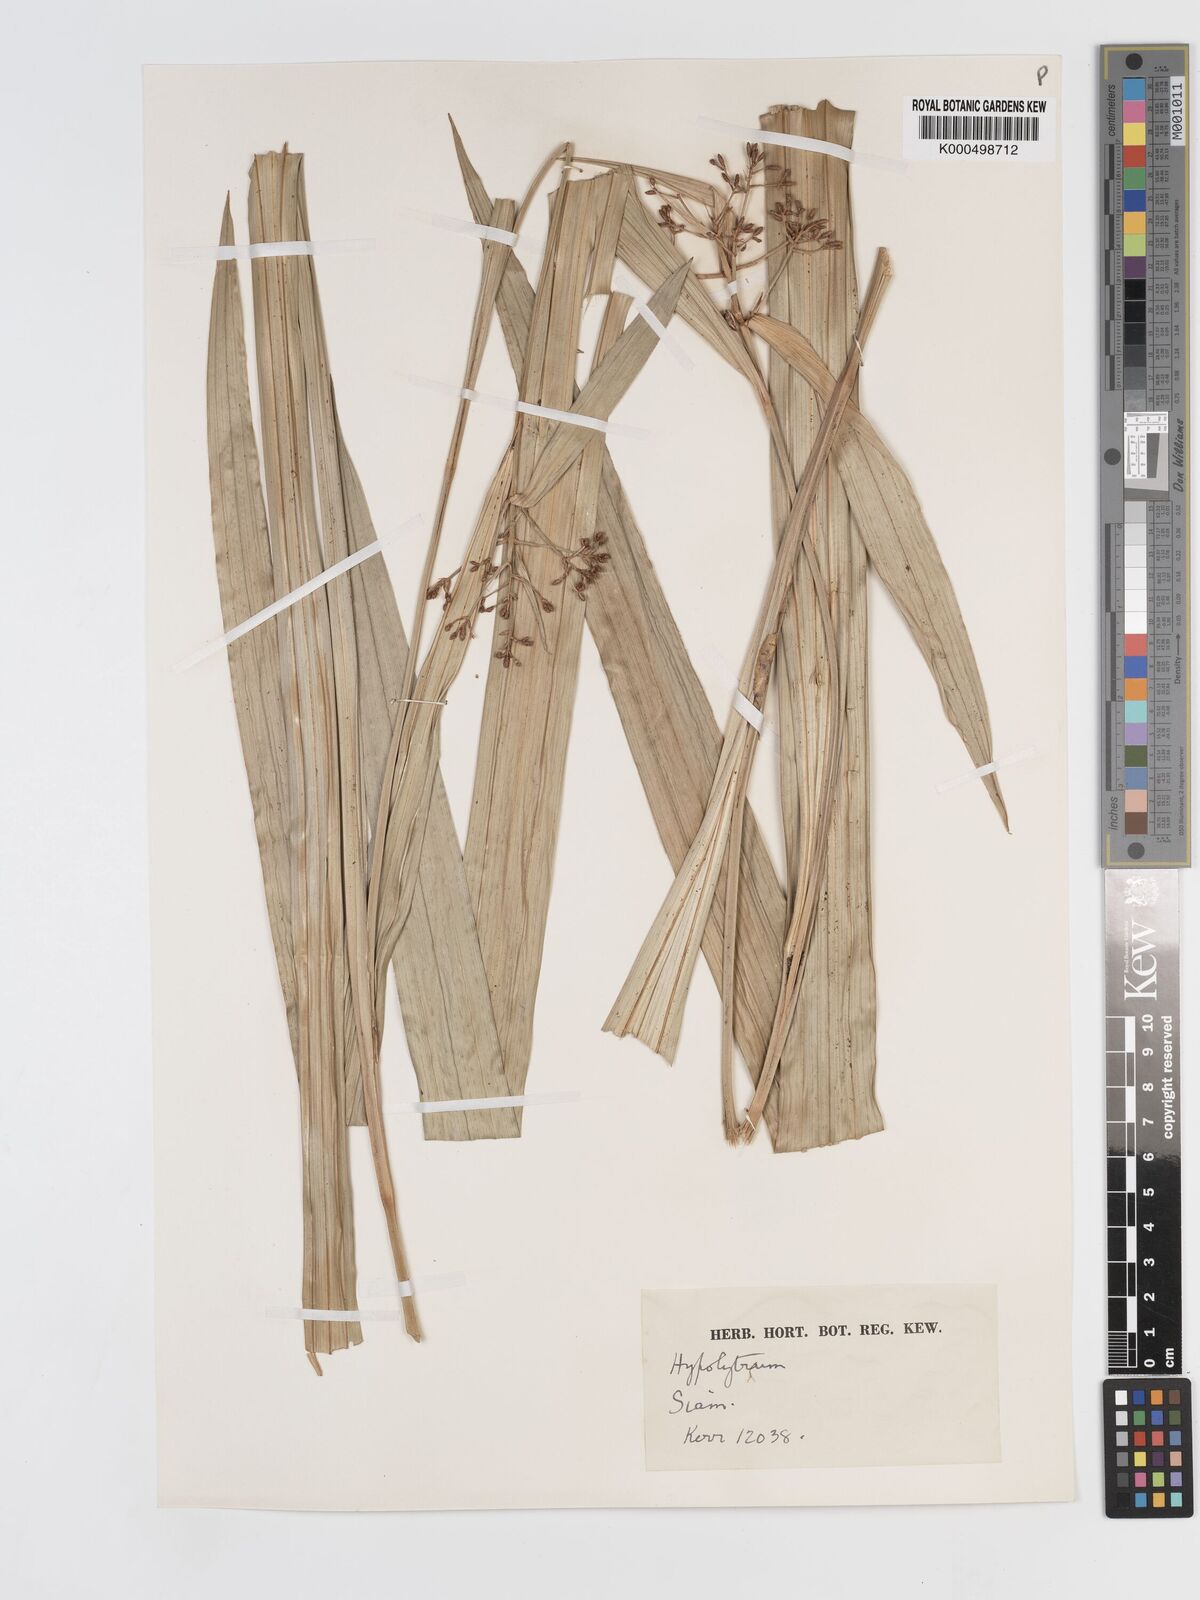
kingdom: Plantae
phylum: Tracheophyta
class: Liliopsida
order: Poales
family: Cyperaceae
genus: Hypolytrum
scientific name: Hypolytrum nemorum
